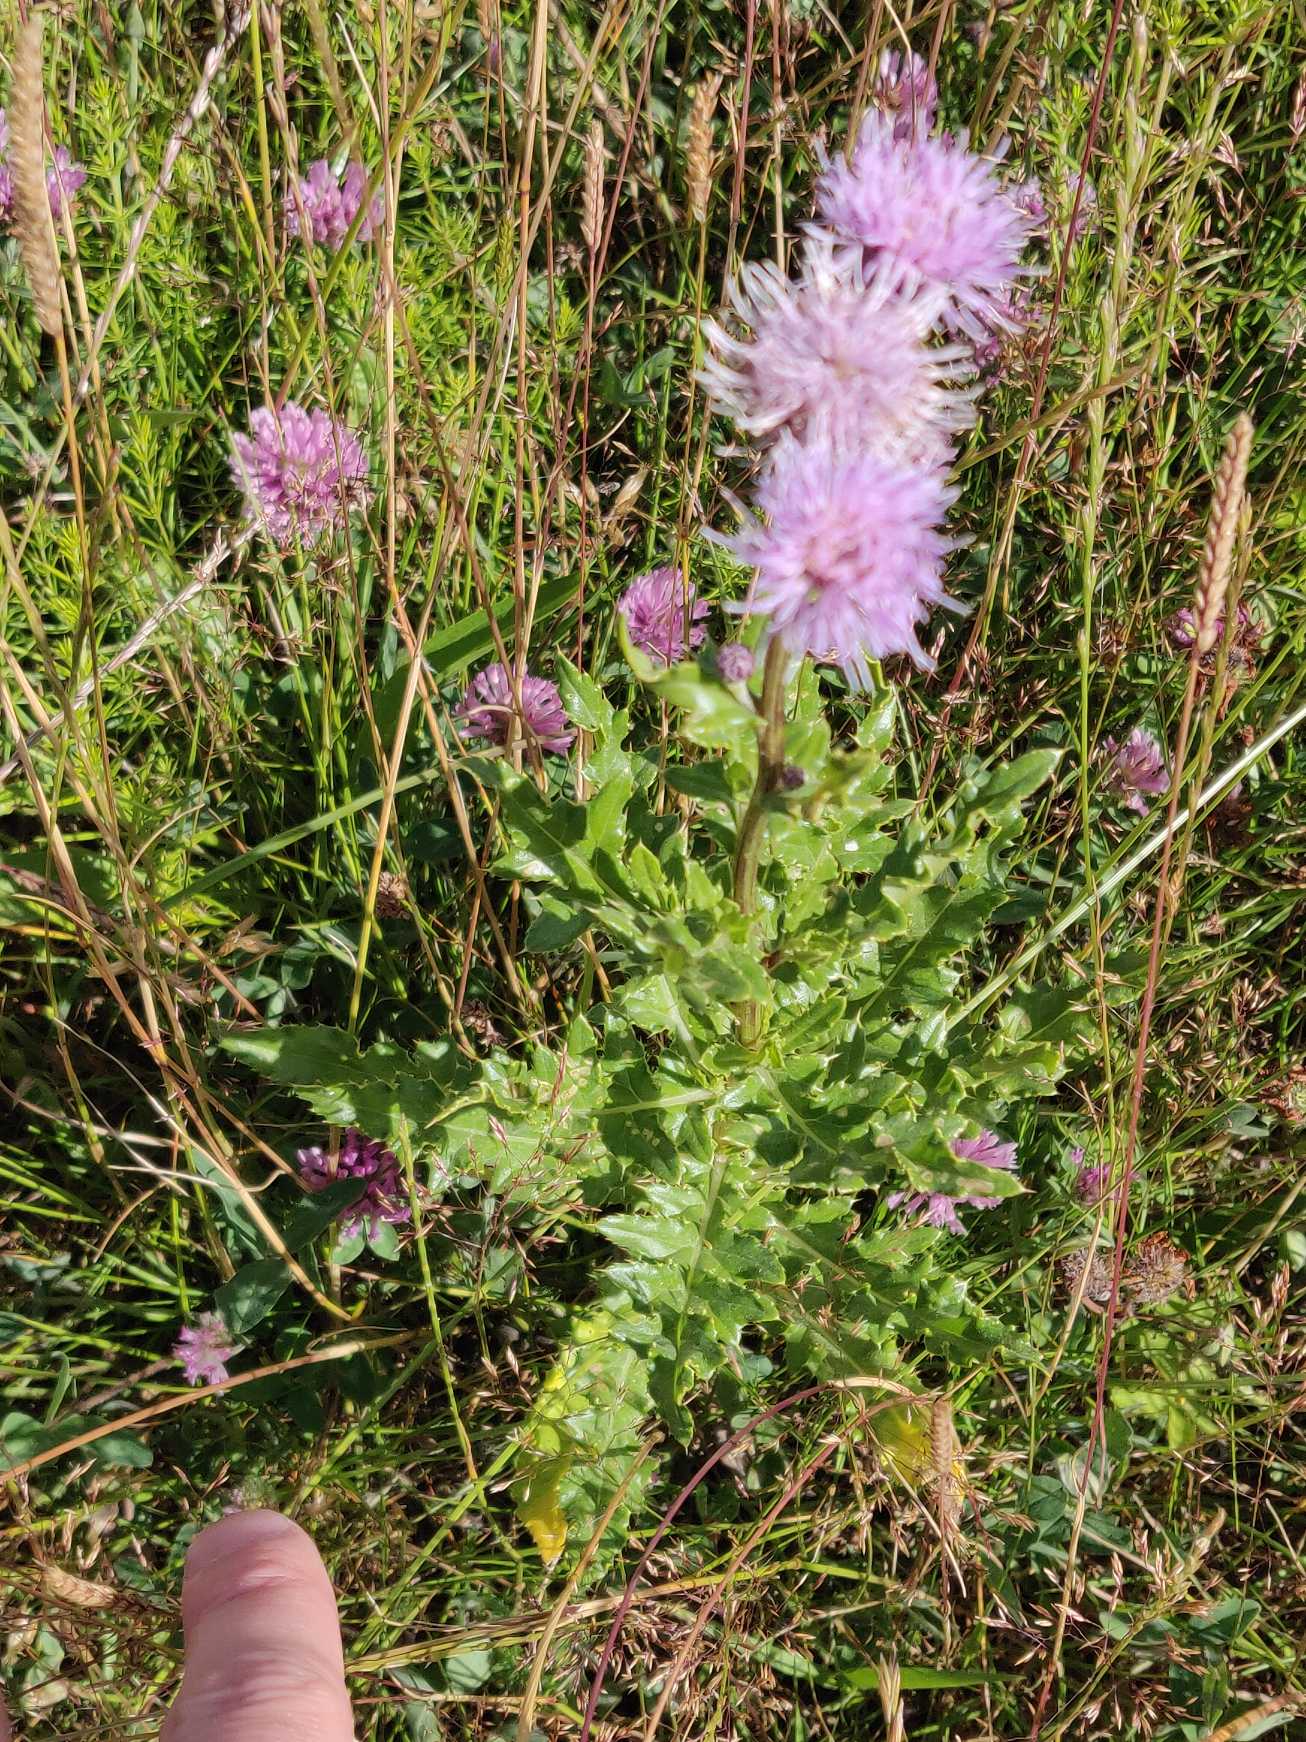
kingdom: Plantae
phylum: Tracheophyta
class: Magnoliopsida
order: Asterales
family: Asteraceae
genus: Cirsium
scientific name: Cirsium arvense
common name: Ager-tidsel
